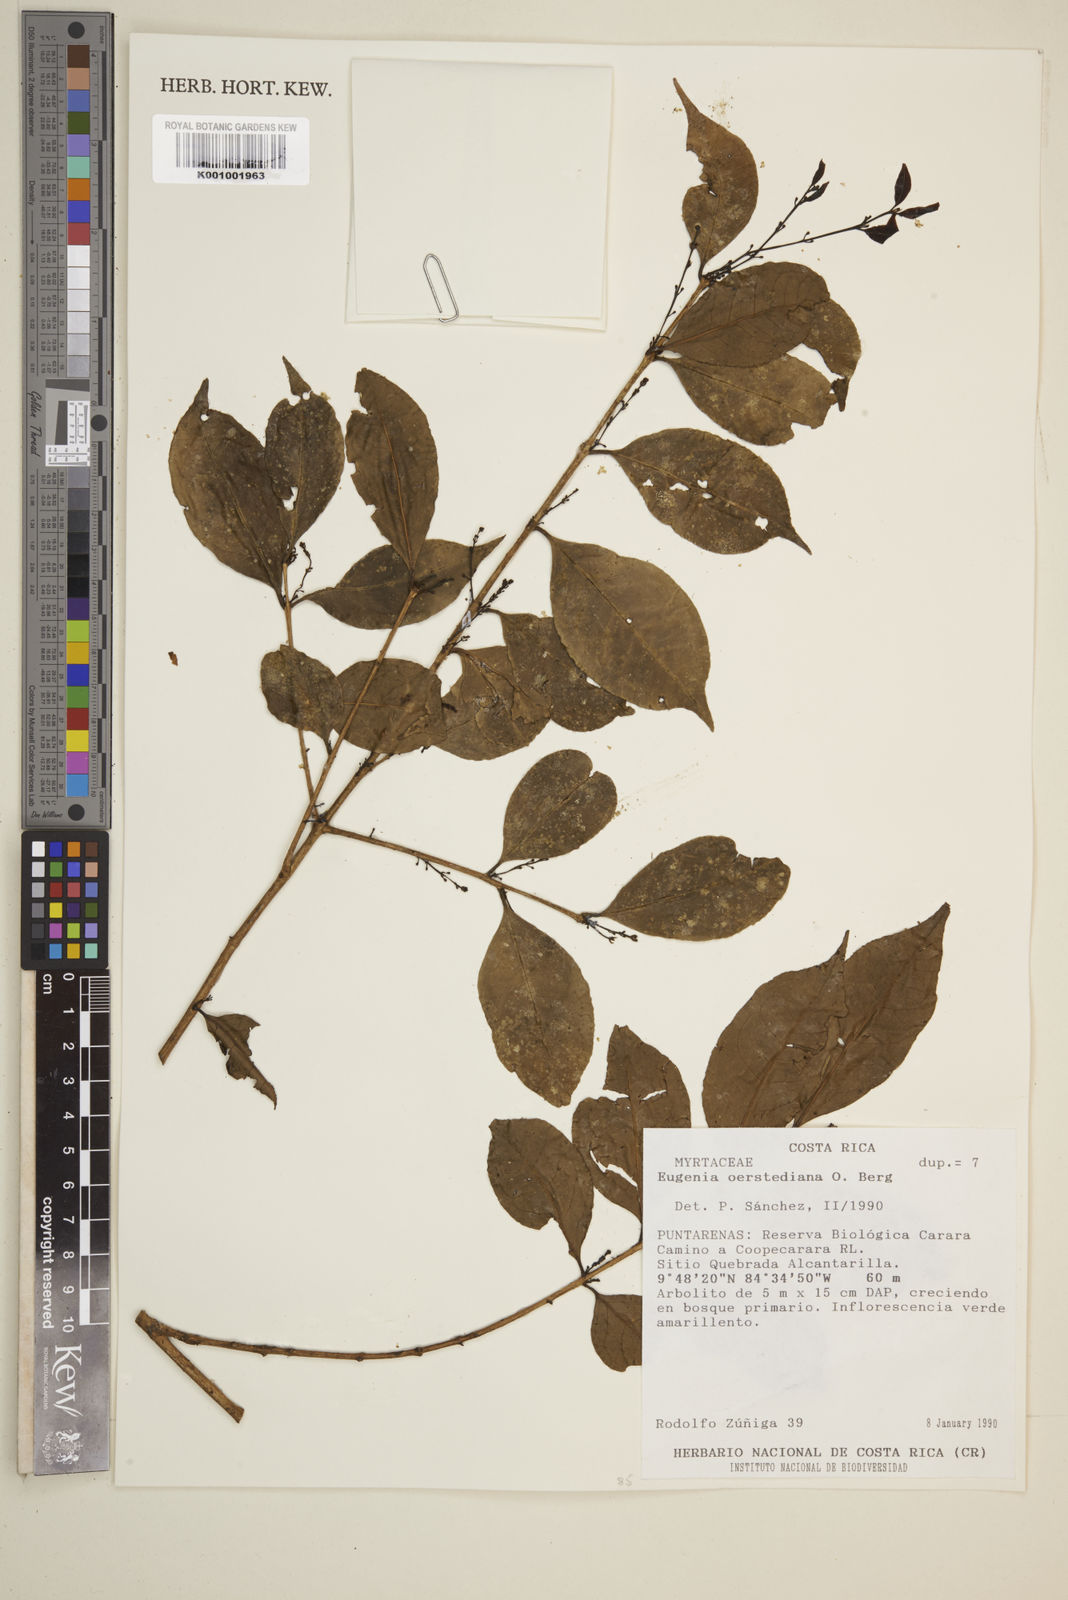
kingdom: Plantae
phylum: Tracheophyta
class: Magnoliopsida
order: Myrtales
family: Myrtaceae
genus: Eugenia
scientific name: Eugenia oerstediana
